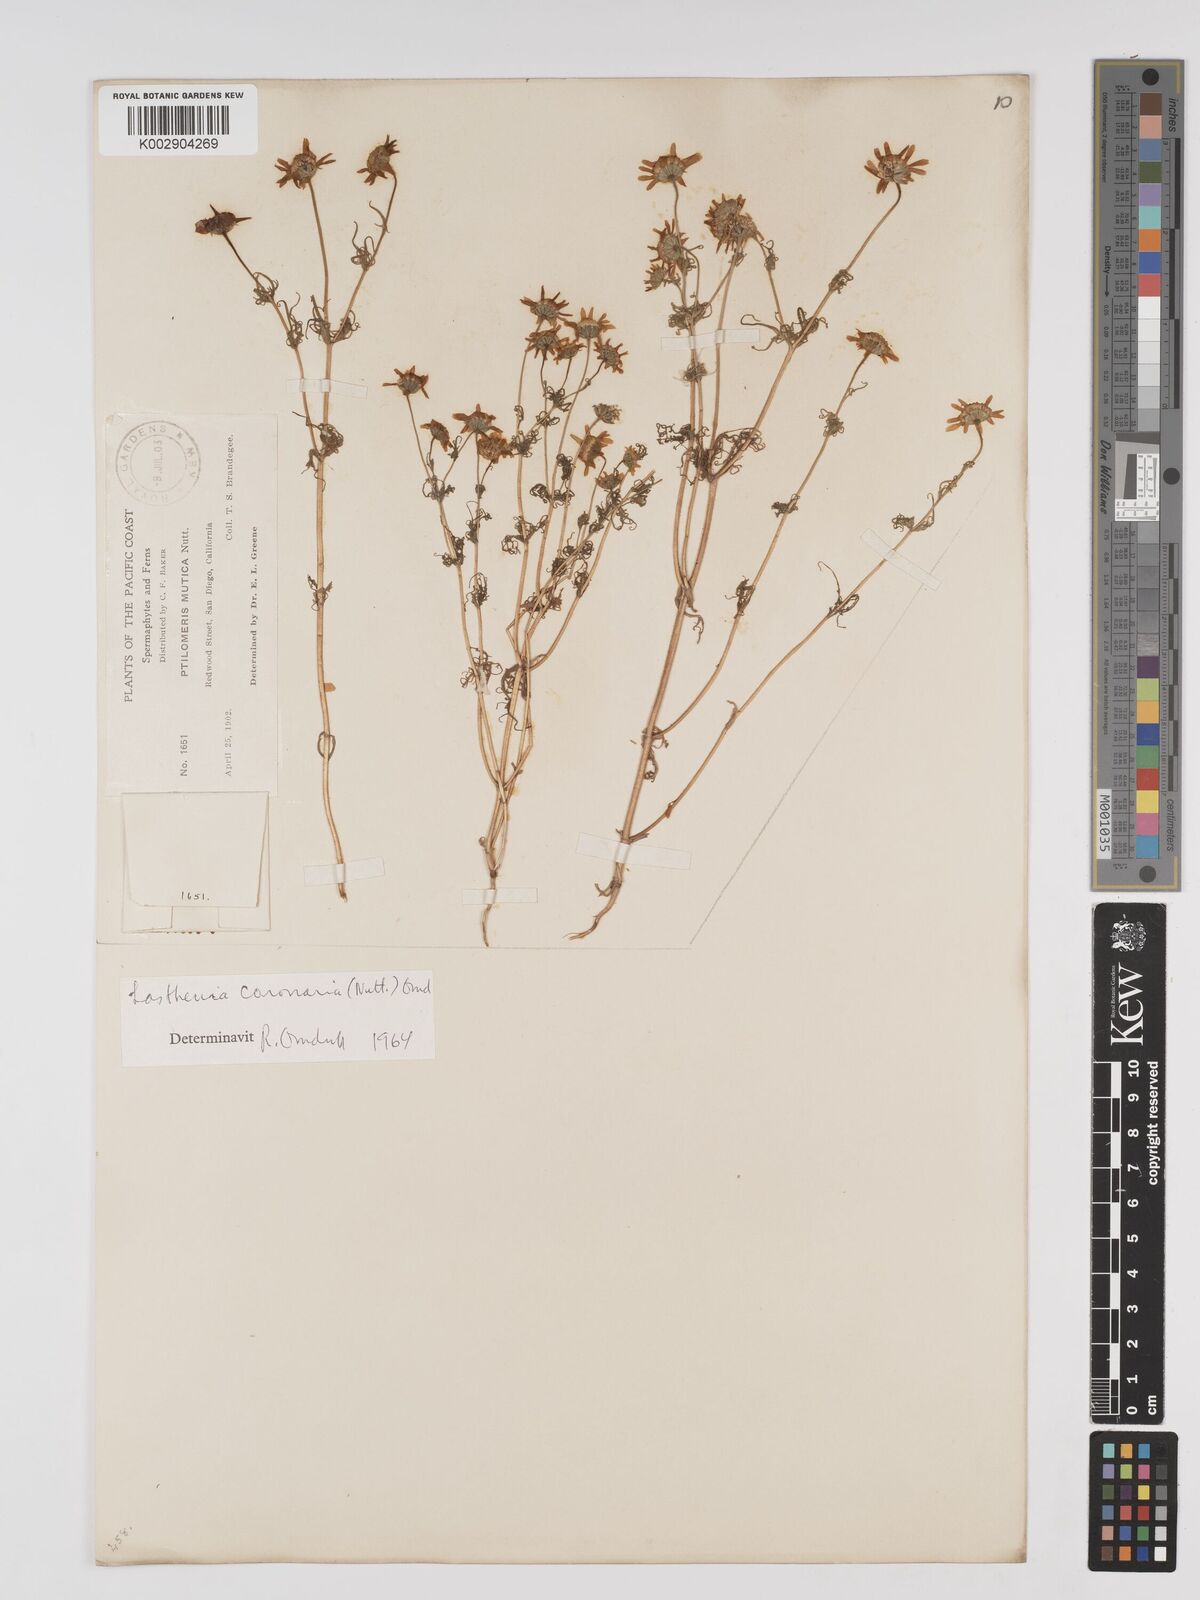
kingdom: Plantae
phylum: Tracheophyta
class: Magnoliopsida
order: Asterales
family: Asteraceae
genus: Lasthenia
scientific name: Lasthenia coronaria
